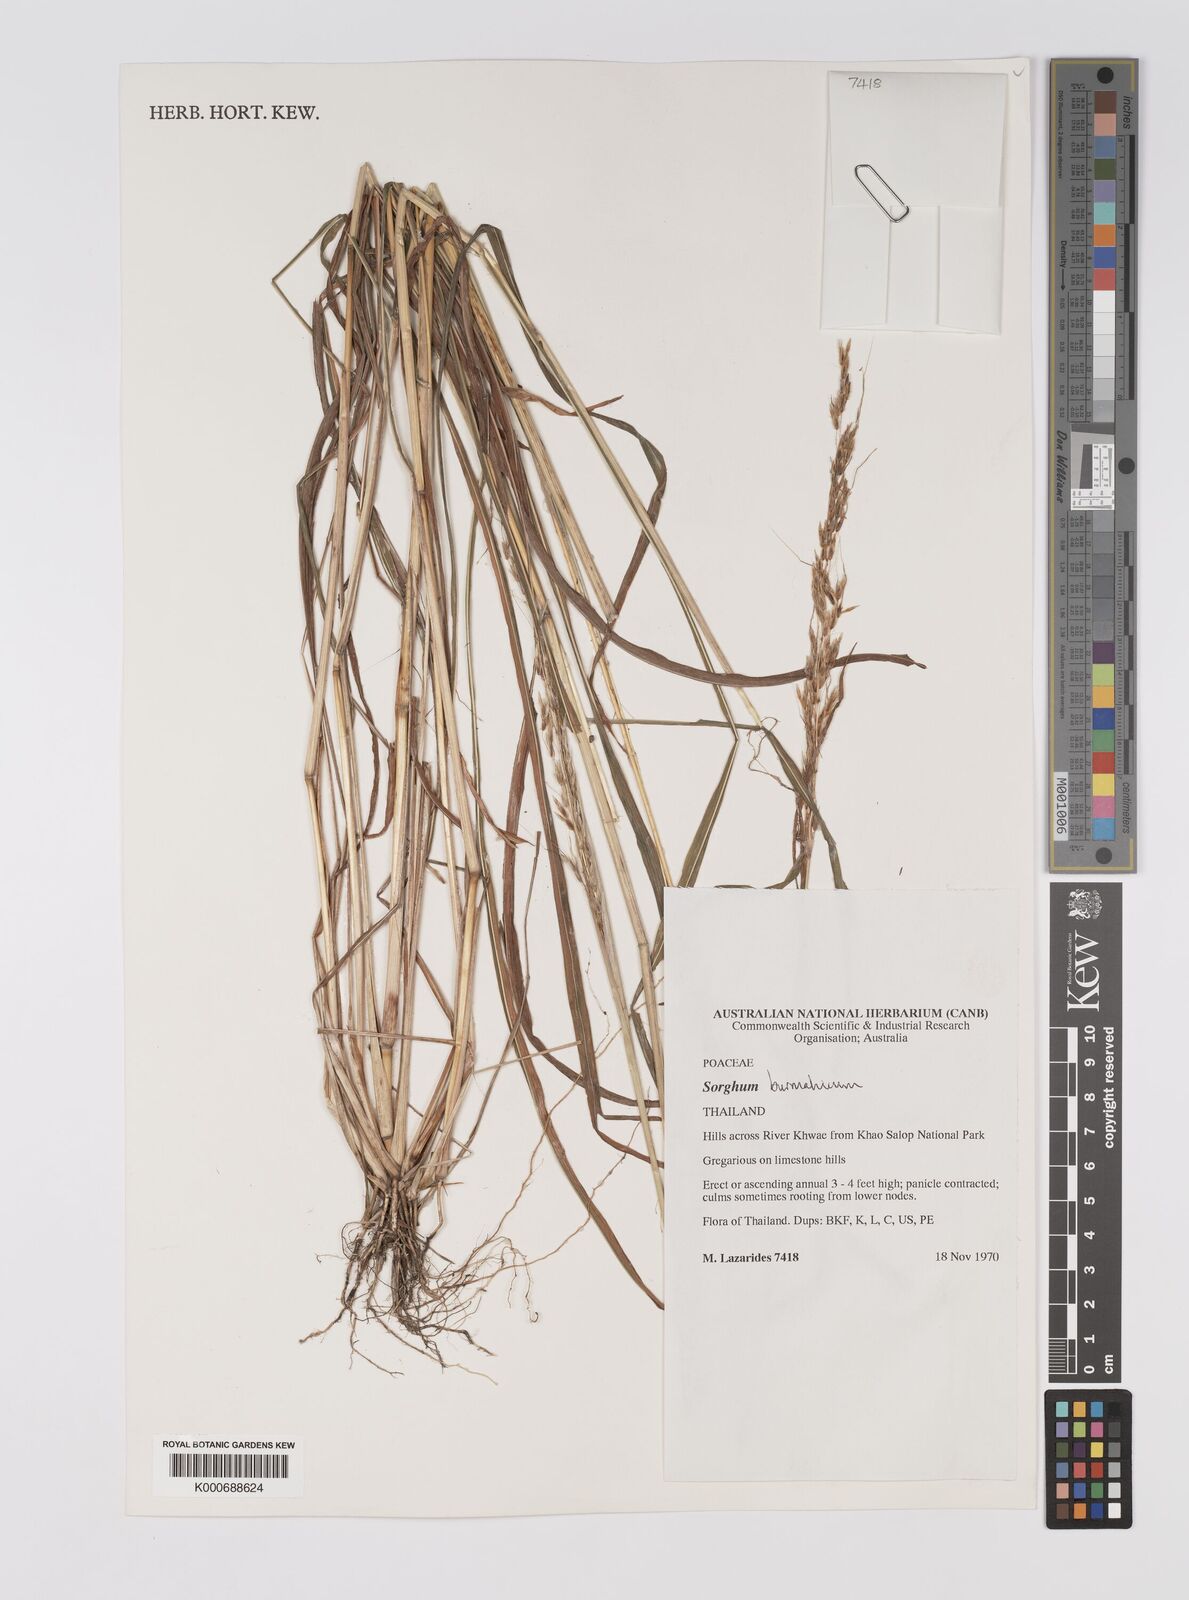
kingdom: Plantae
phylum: Tracheophyta
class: Liliopsida
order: Poales
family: Poaceae
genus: Sorghum
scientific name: Sorghum burmahicum
